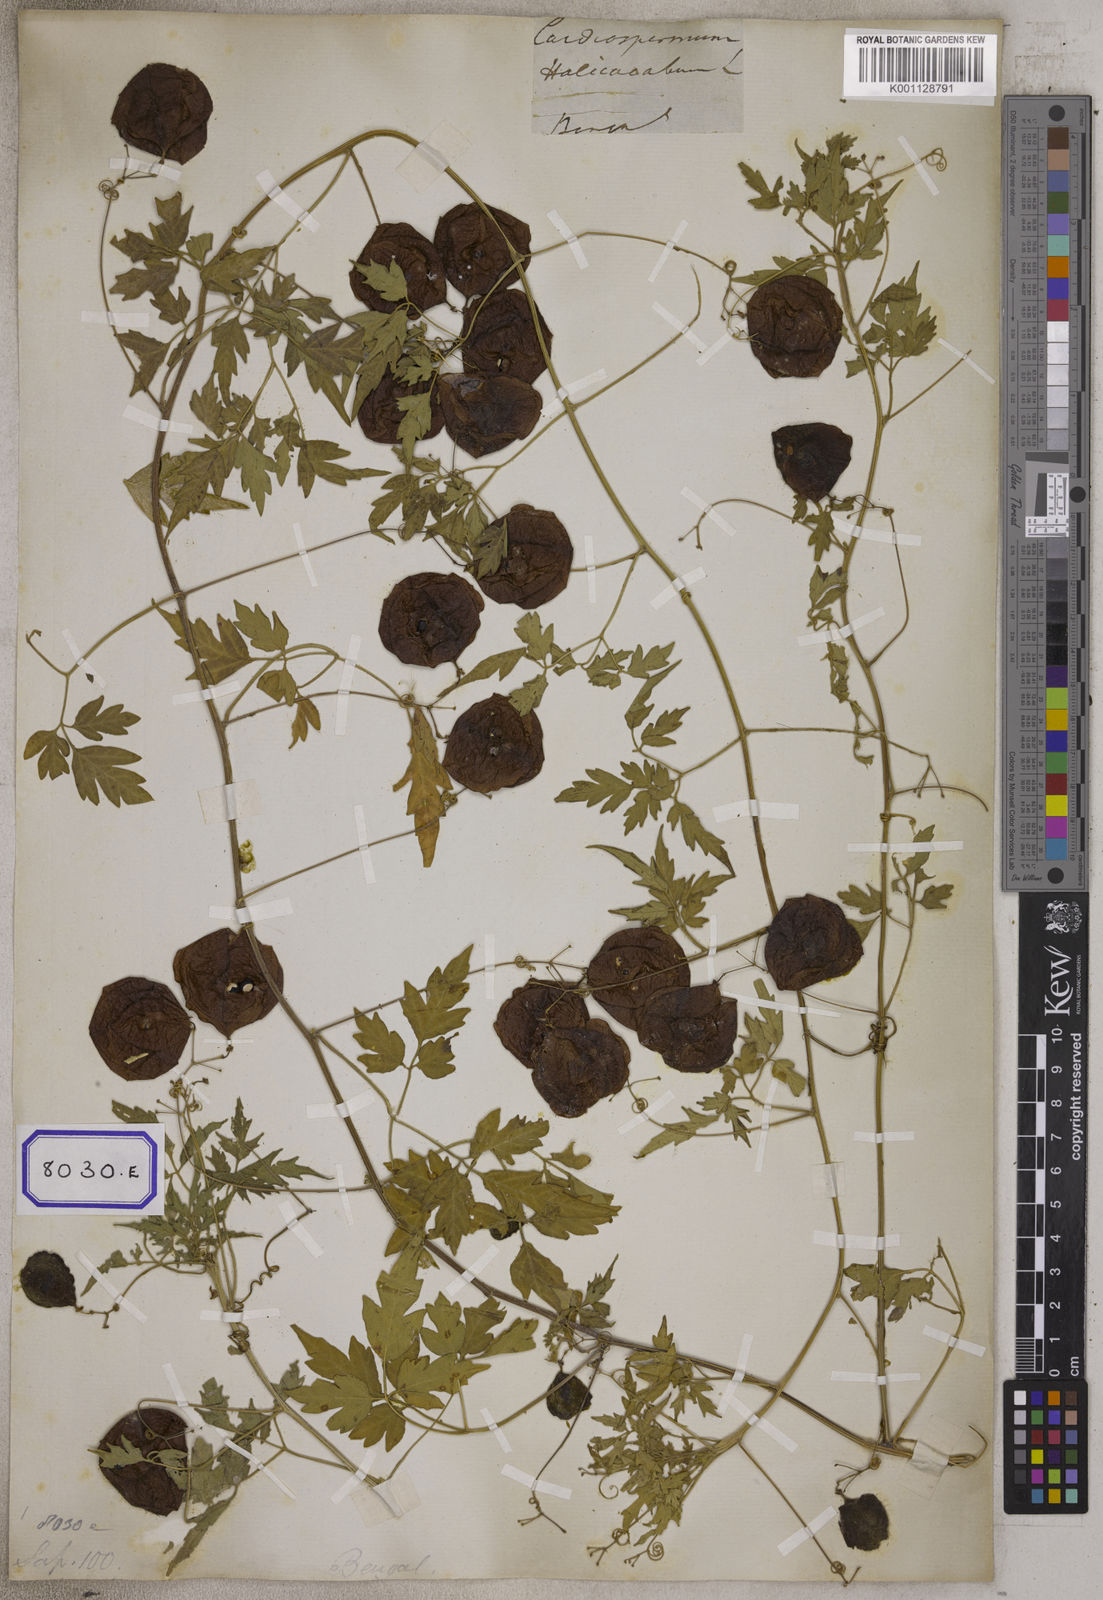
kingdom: Plantae
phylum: Tracheophyta
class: Magnoliopsida
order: Sapindales
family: Sapindaceae
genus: Cardiospermum
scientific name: Cardiospermum halicacabum
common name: Balloon vine
